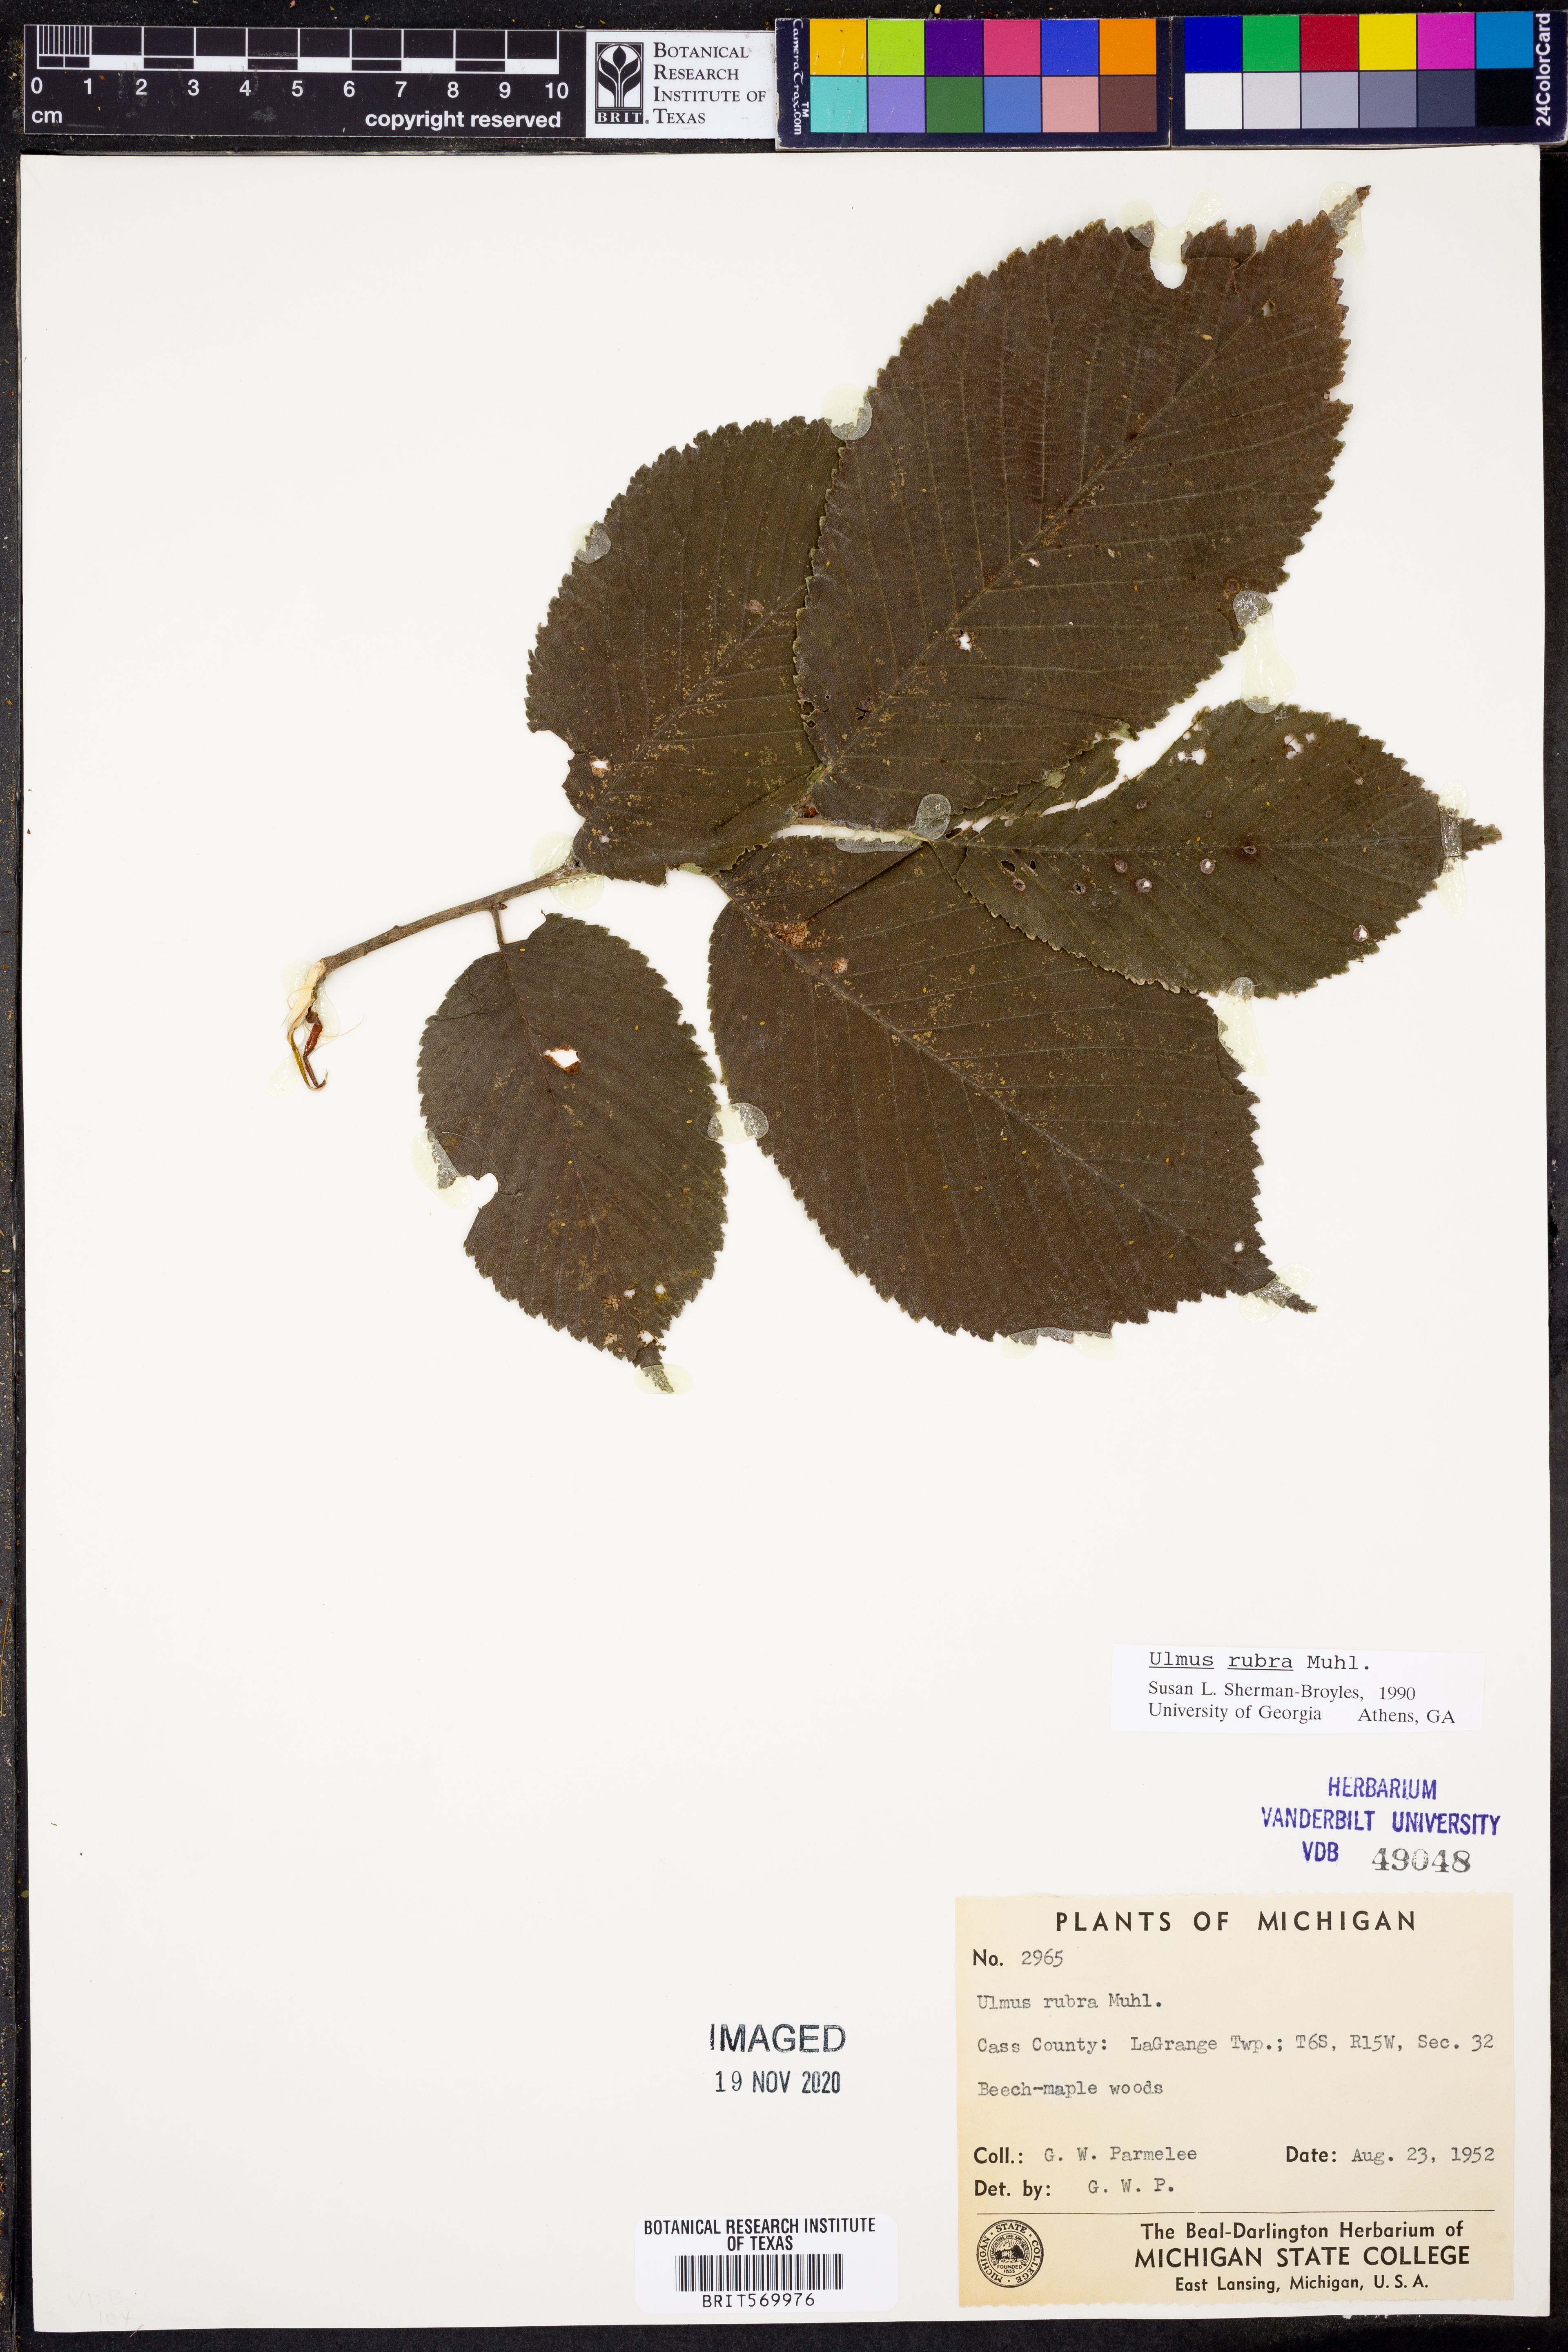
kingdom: Plantae
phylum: Tracheophyta
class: Magnoliopsida
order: Rosales
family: Ulmaceae
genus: Ulmus
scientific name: Ulmus rubra
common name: Slippery elm
